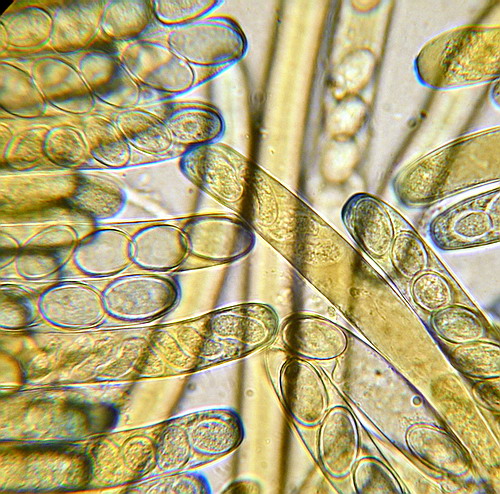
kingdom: Fungi
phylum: Ascomycota
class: Pezizomycetes
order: Pezizales
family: Pezizaceae
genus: Peziza
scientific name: Peziza varia
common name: Ved-bægersvamp
